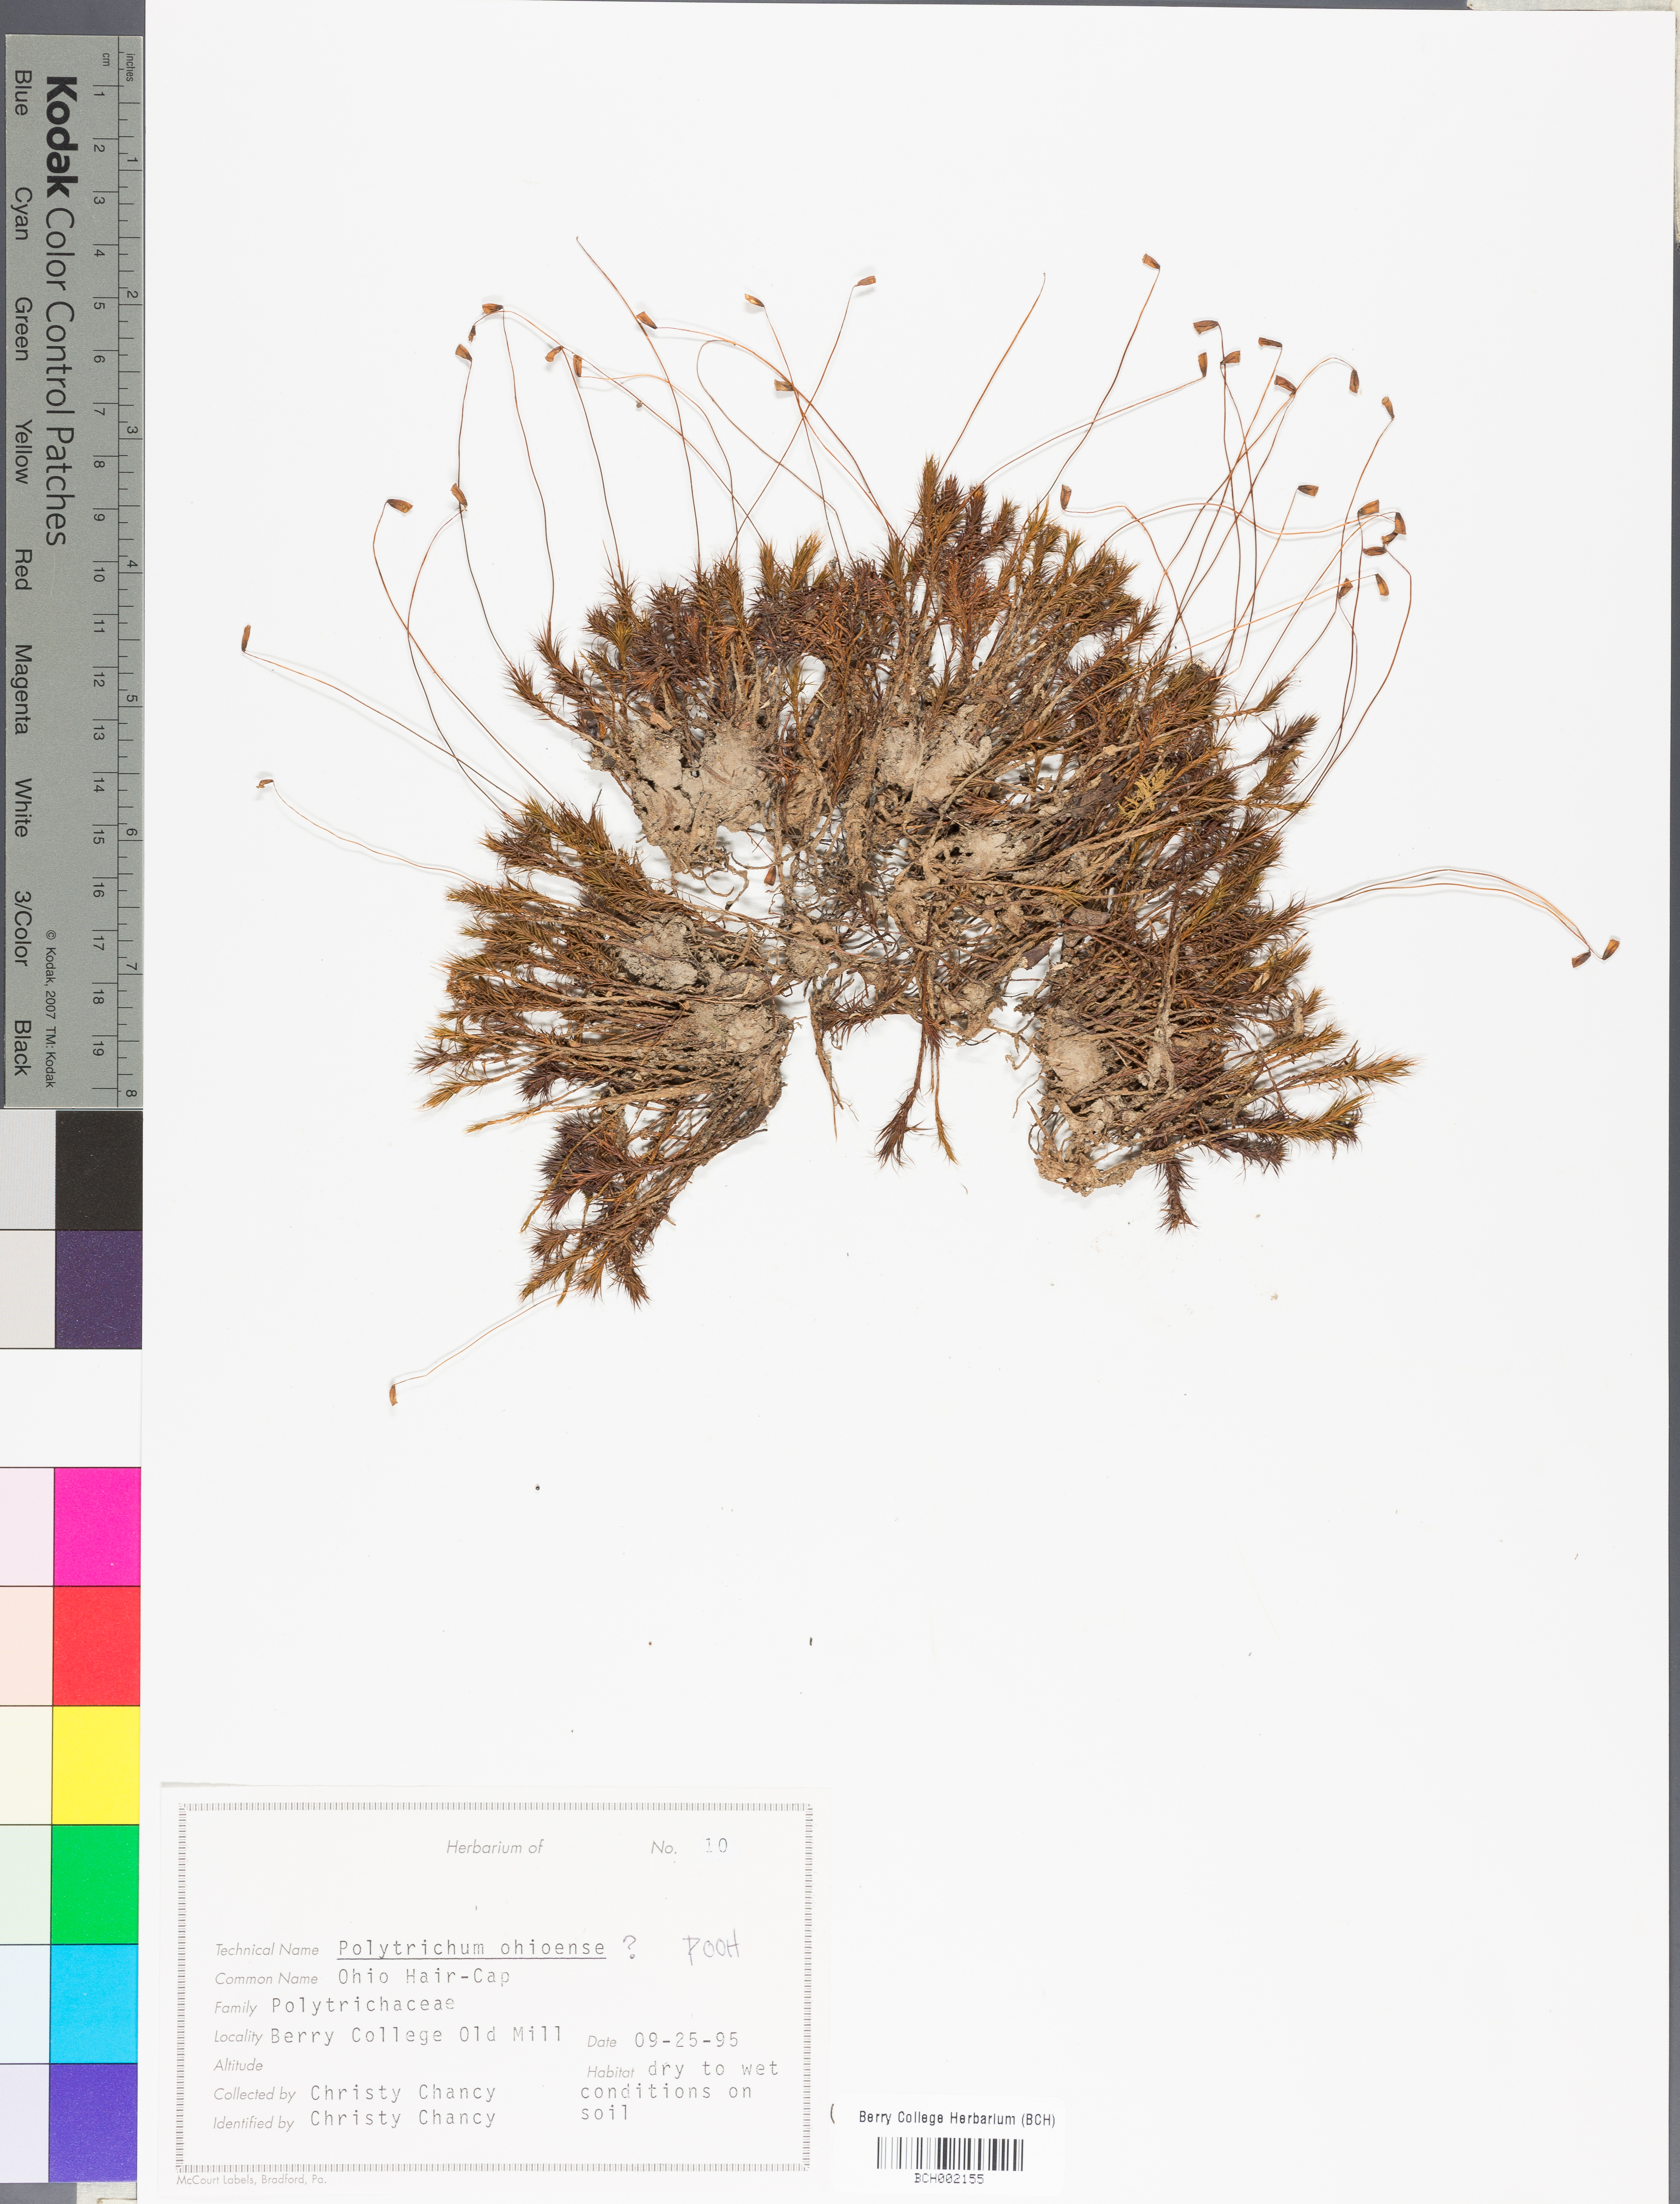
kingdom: Plantae
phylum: Bryophyta
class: Polytrichopsida
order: Polytrichales
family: Polytrichaceae
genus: Polytrichum
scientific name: Polytrichum ohioense
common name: Ohio polytrichum moss
